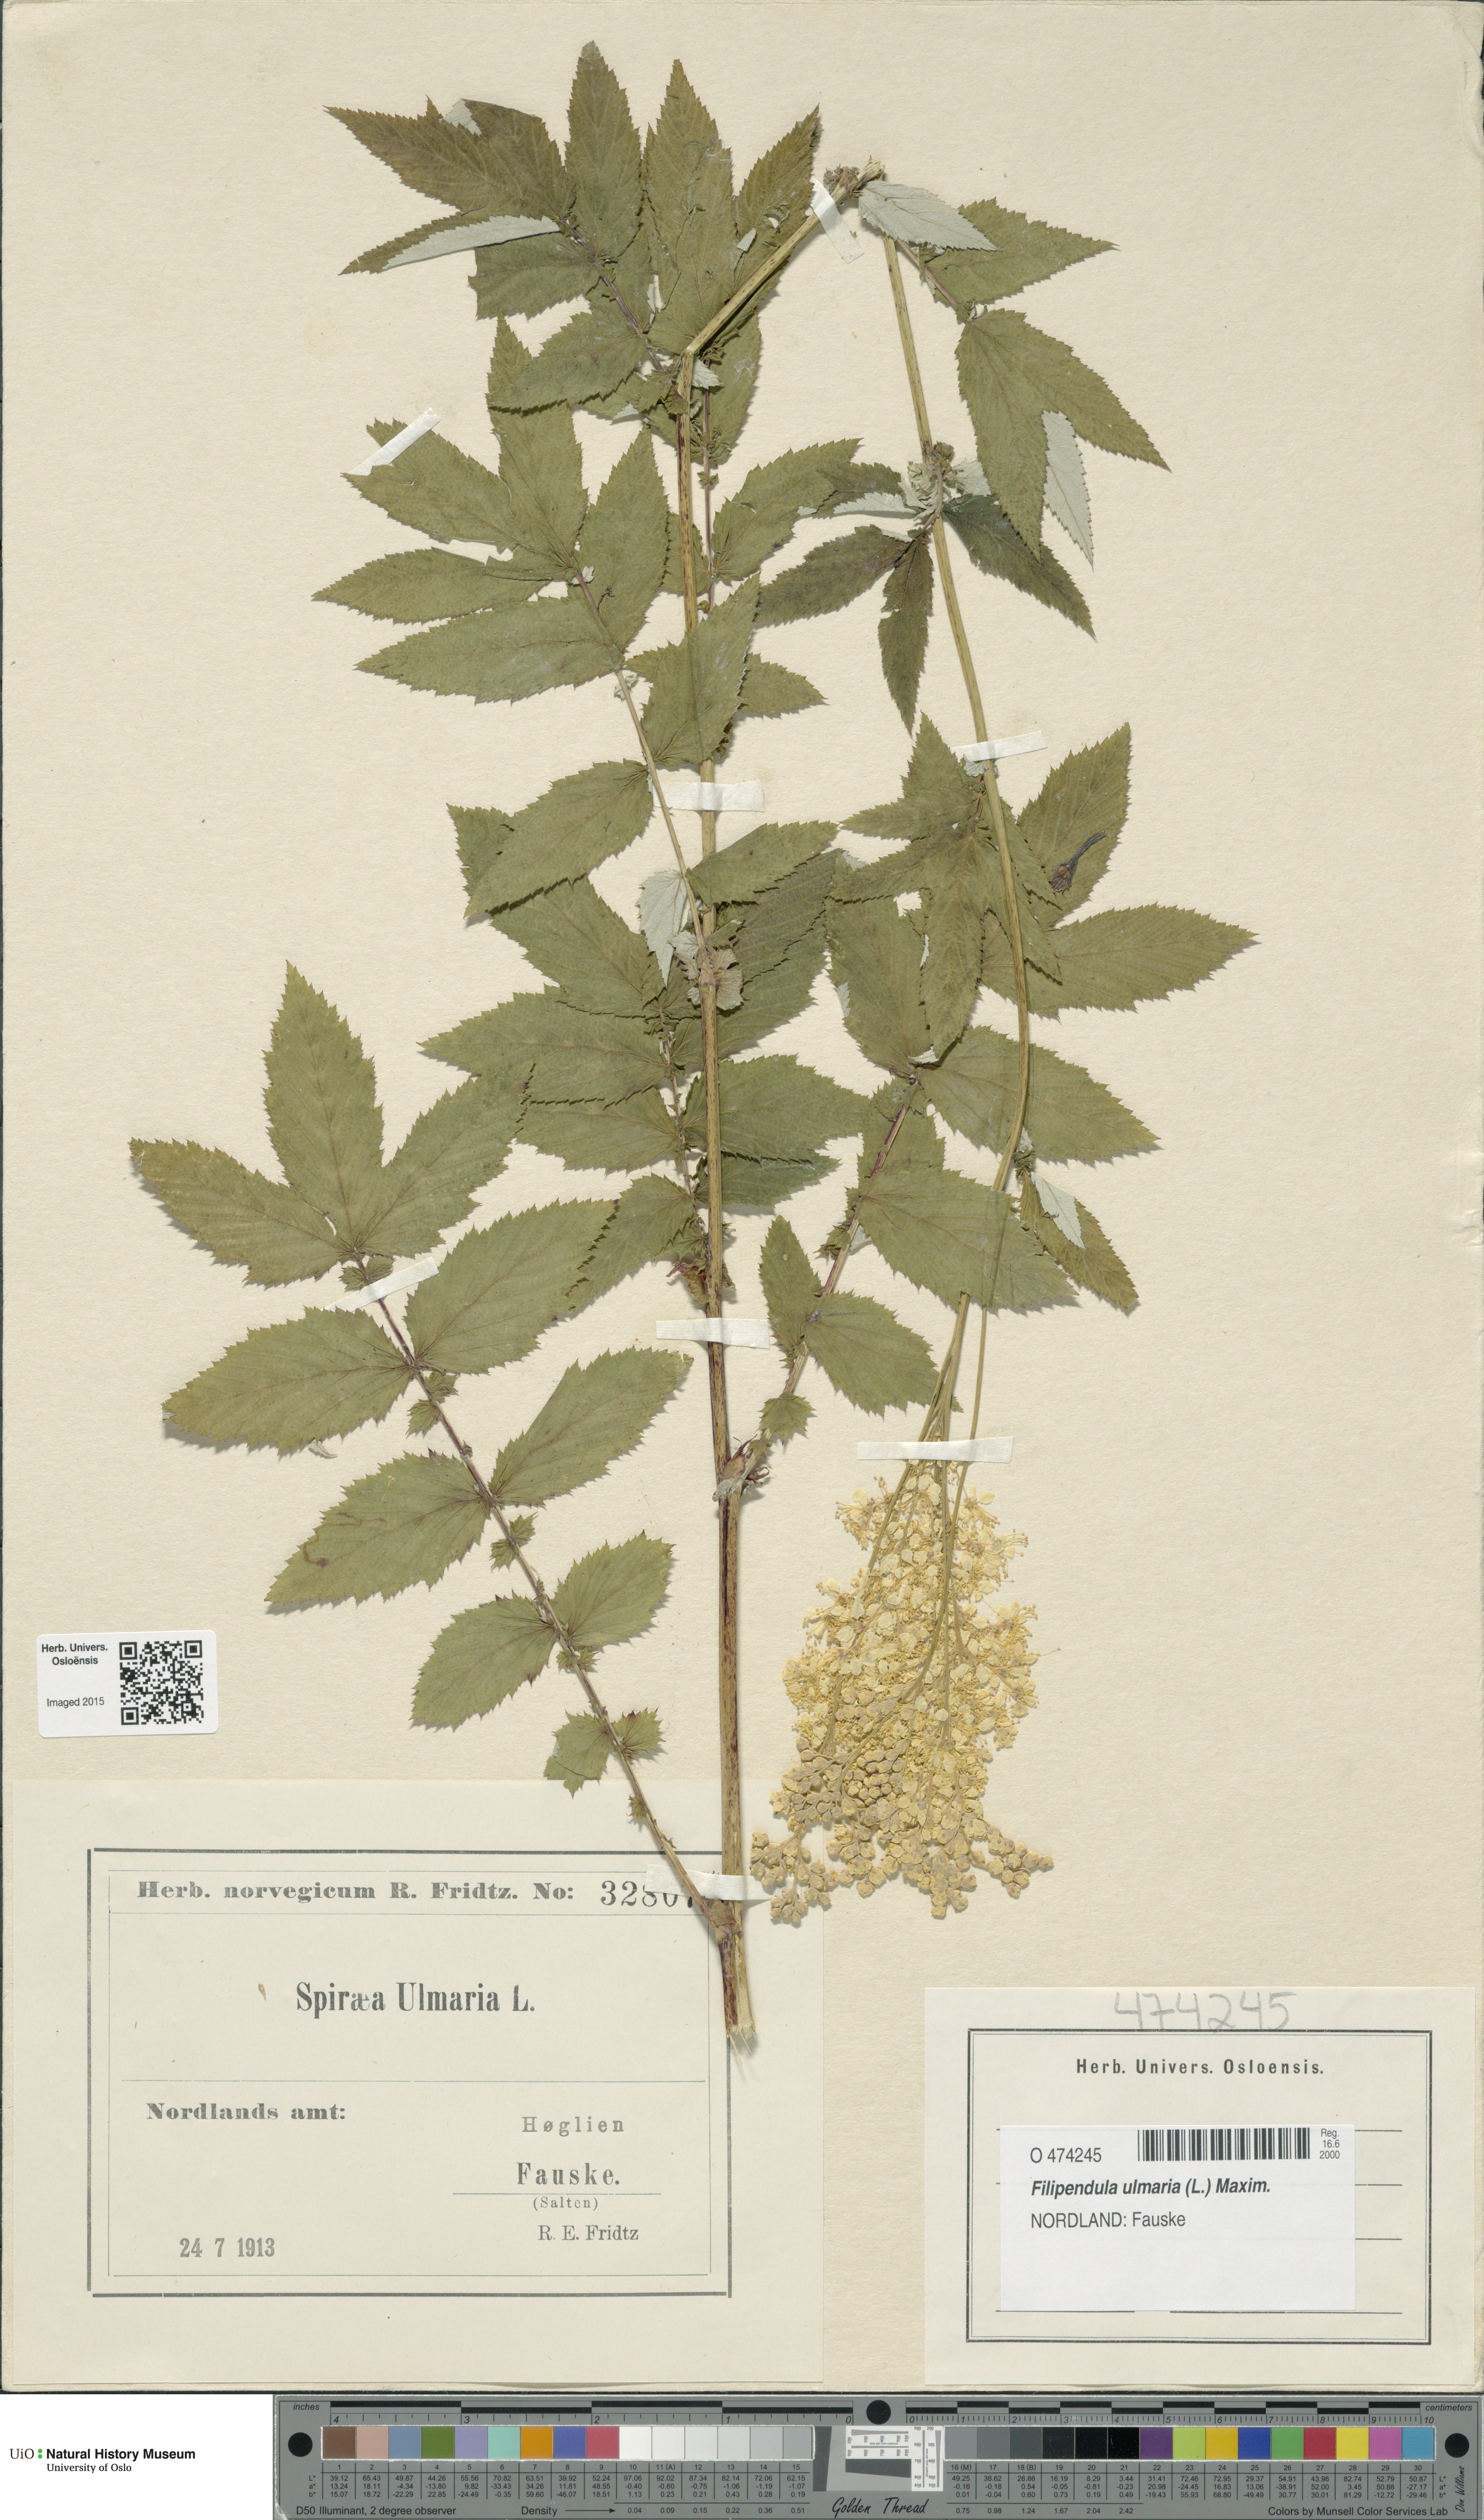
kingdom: Plantae
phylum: Tracheophyta
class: Magnoliopsida
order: Rosales
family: Rosaceae
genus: Filipendula
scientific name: Filipendula ulmaria
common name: Meadowsweet
